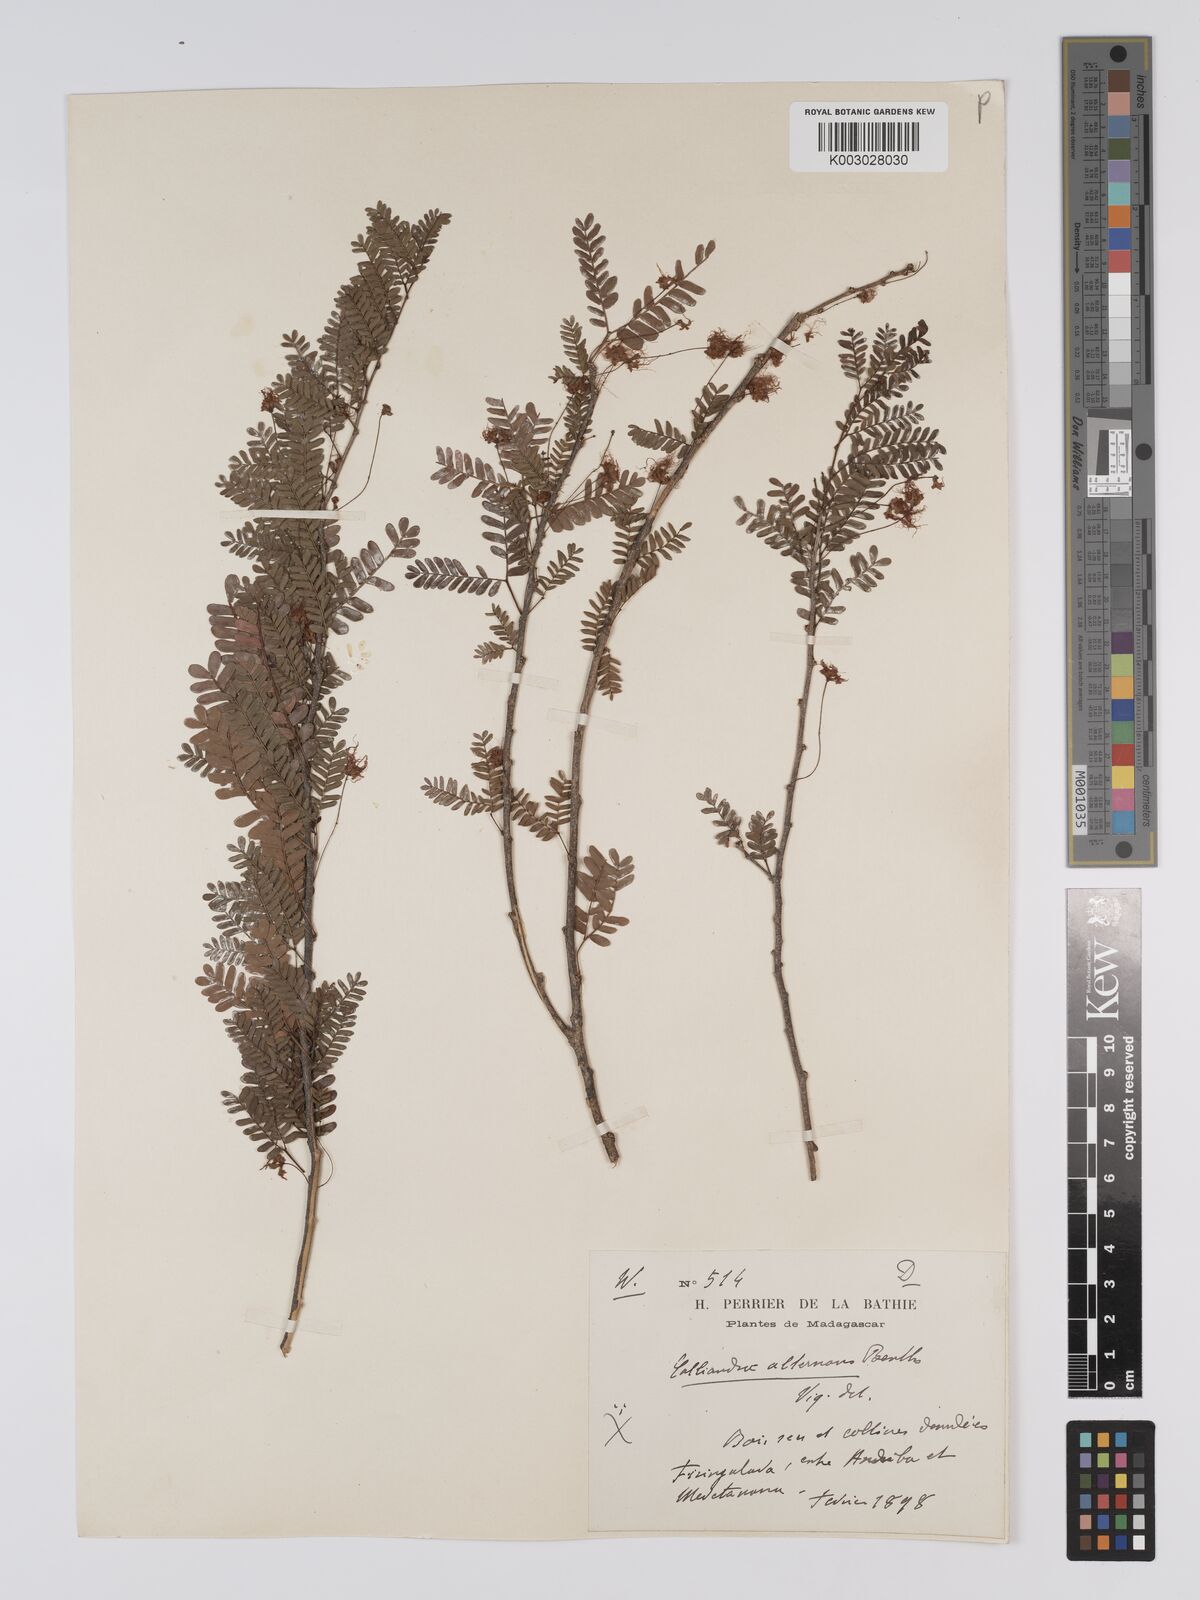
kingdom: Plantae
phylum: Tracheophyta
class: Magnoliopsida
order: Fabales
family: Fabaceae
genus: Viguieranthus
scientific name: Viguieranthus alternans
